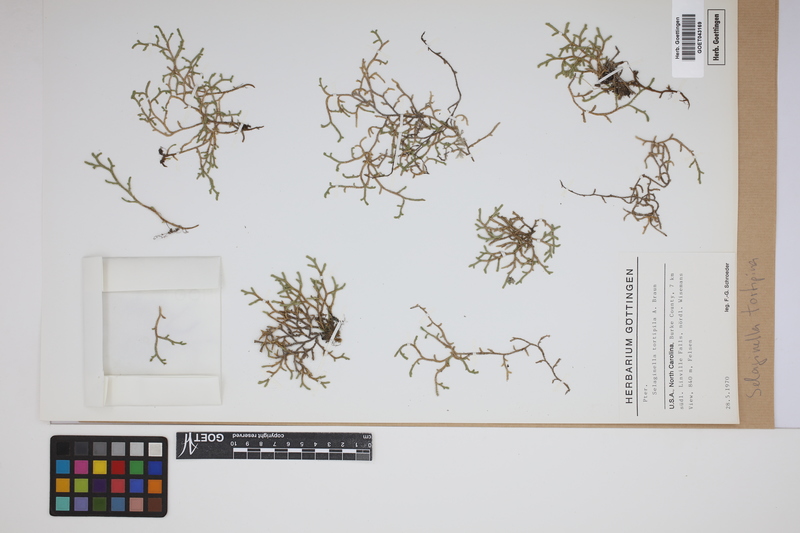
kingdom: Plantae
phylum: Tracheophyta
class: Lycopodiopsida
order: Selaginellales
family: Selaginellaceae
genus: Selaginella
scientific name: Selaginella tortipila
